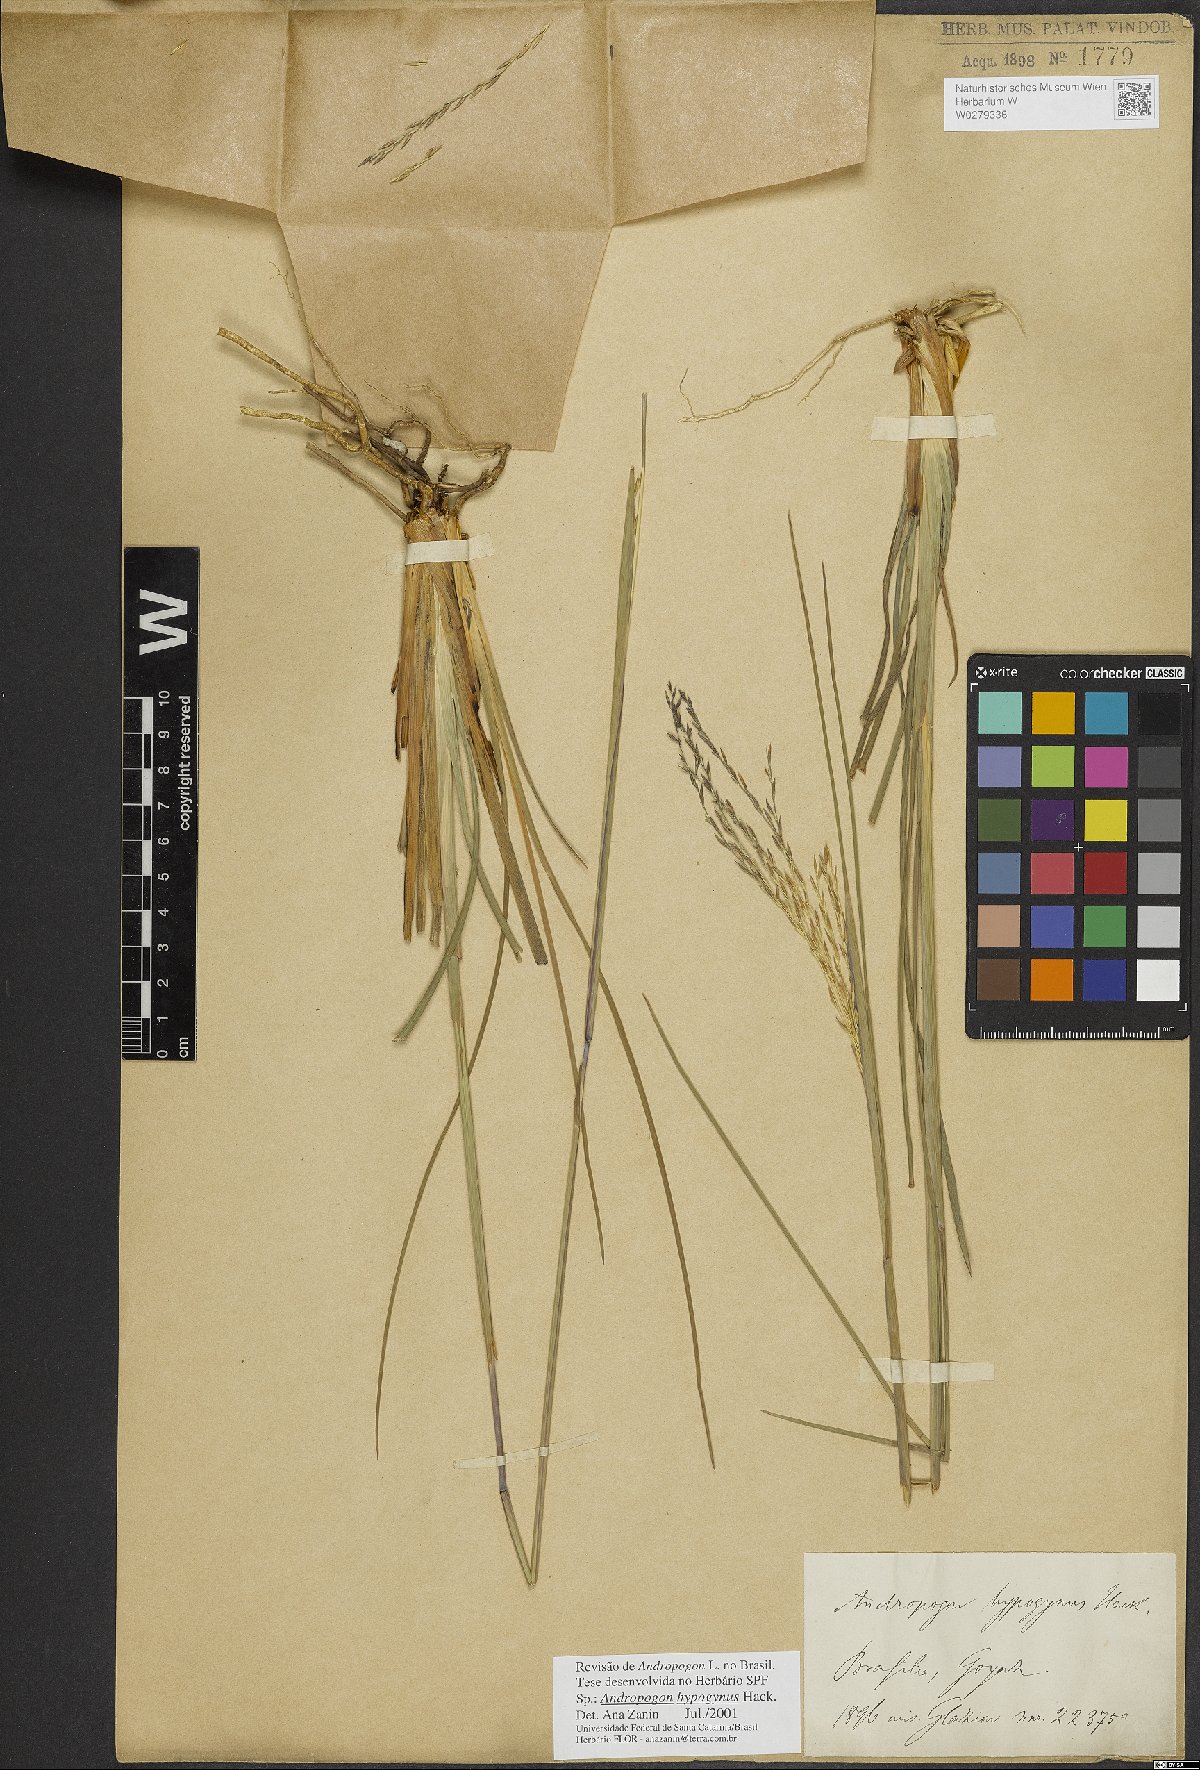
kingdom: Plantae
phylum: Tracheophyta
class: Liliopsida
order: Poales
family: Poaceae
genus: Andropogon
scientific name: Andropogon hypogynus
